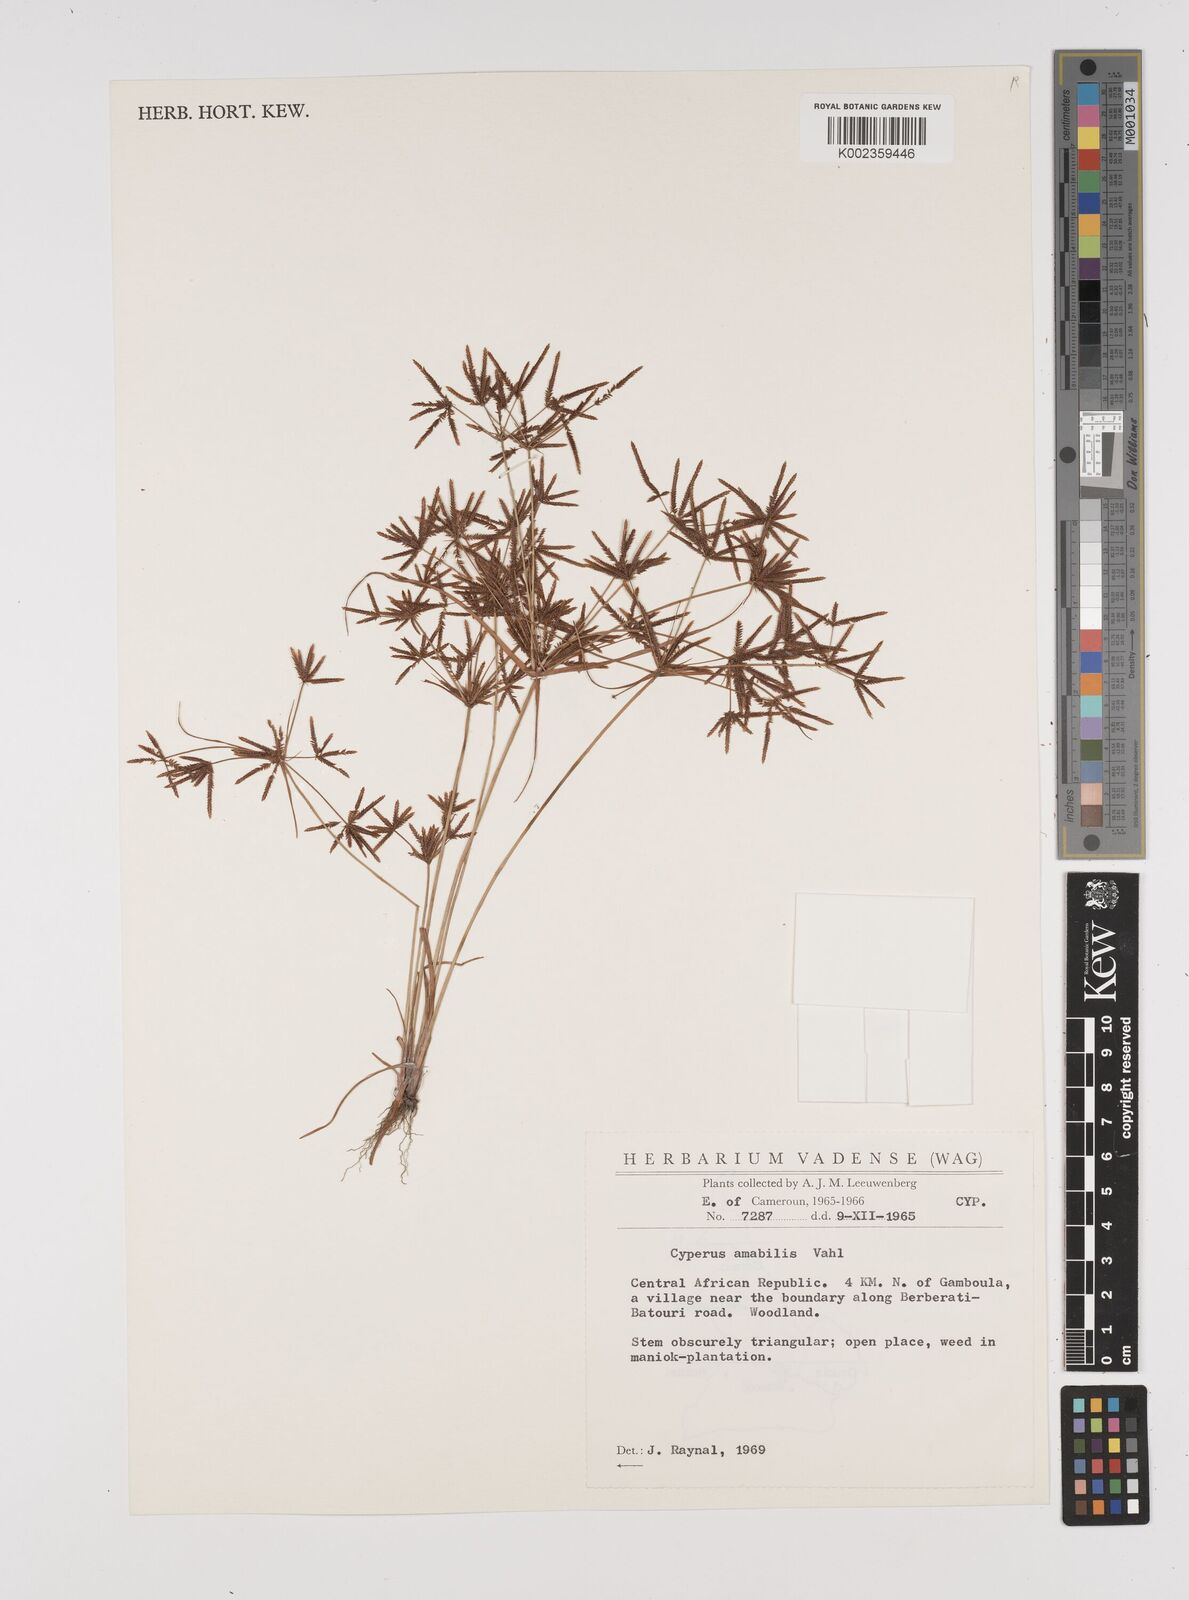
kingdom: Plantae
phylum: Tracheophyta
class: Liliopsida
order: Poales
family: Cyperaceae
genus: Cyperus
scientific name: Cyperus amabilis
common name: Foothill flat sedge
